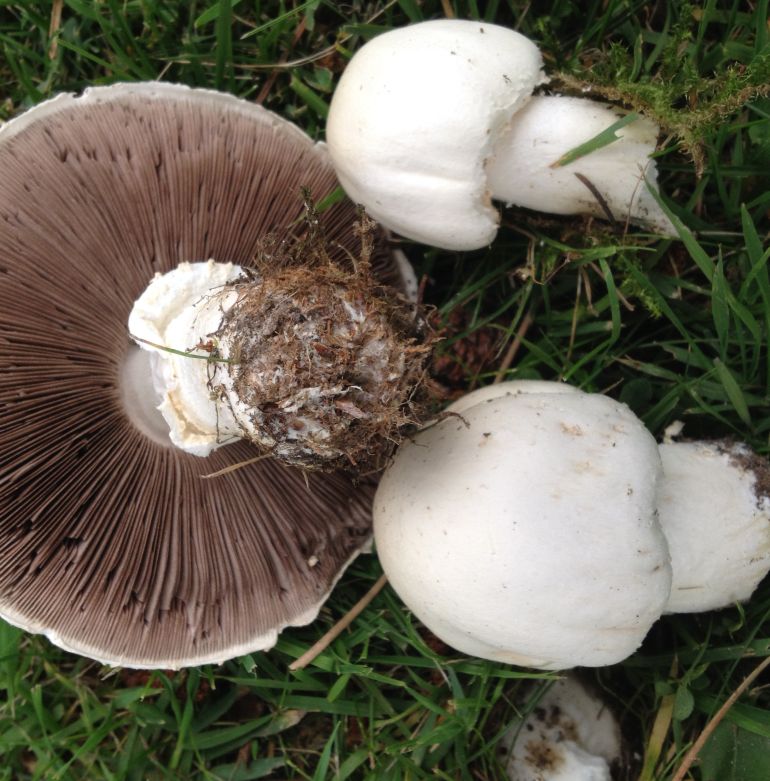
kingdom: Fungi
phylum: Basidiomycota
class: Agaricomycetes
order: Agaricales
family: Agaricaceae
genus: Agaricus
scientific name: Agaricus arvensis
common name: ager-champignon
